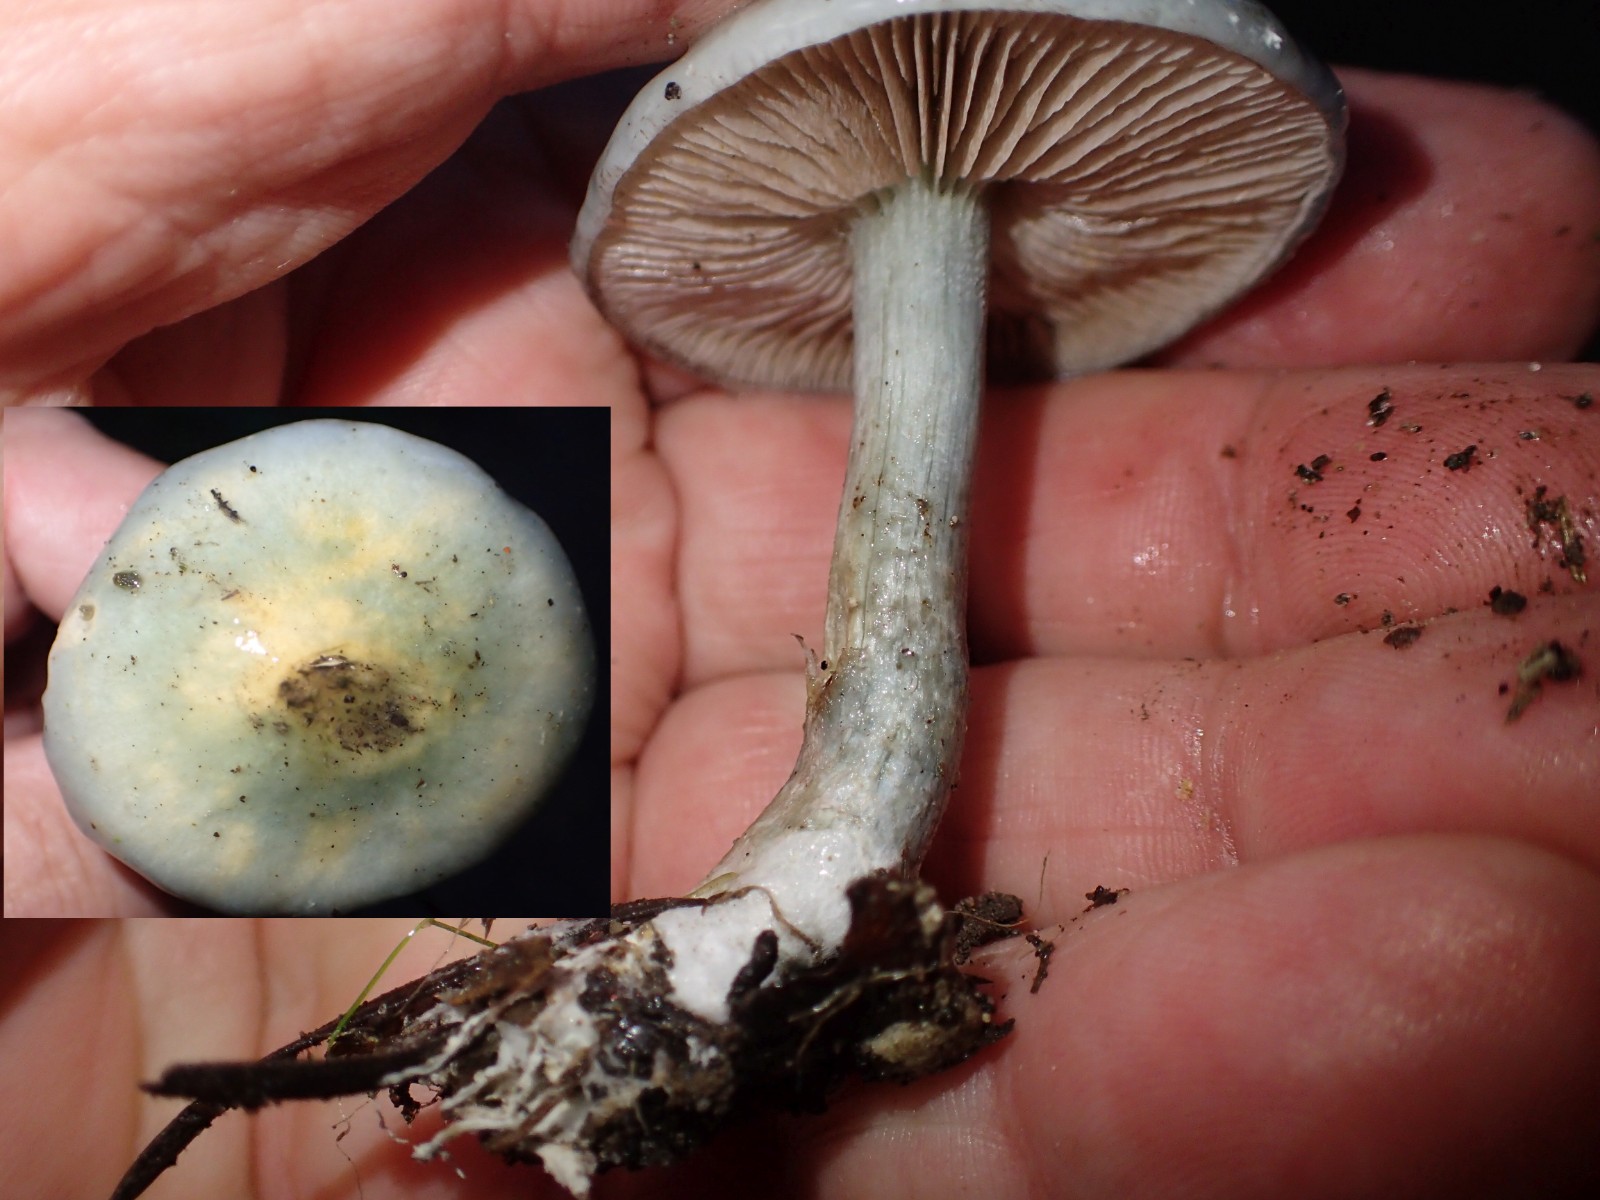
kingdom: Fungi
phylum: Basidiomycota
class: Agaricomycetes
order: Agaricales
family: Strophariaceae
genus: Stropharia
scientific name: Stropharia cyanea
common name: blågrøn bredblad
